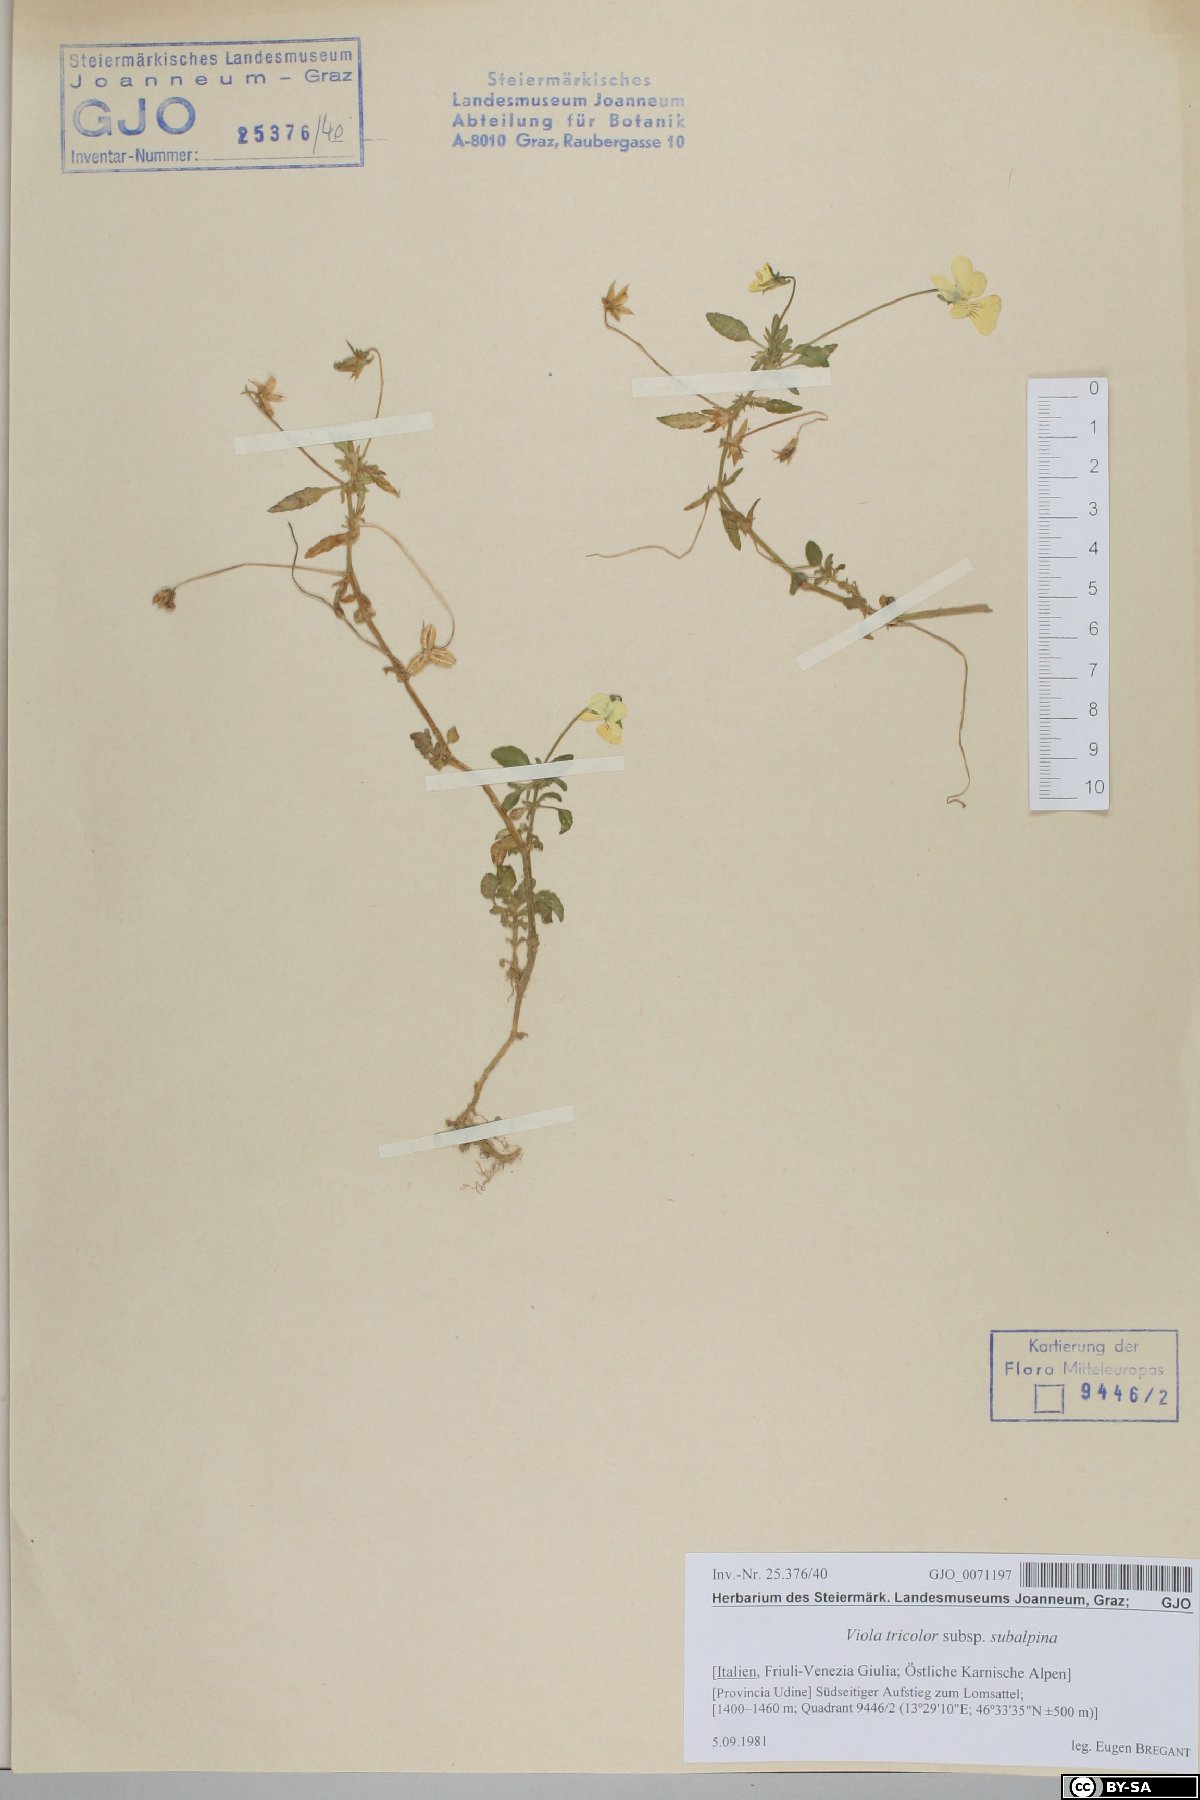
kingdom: Plantae
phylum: Tracheophyta
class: Magnoliopsida
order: Malpighiales
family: Violaceae
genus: Viola
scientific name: Viola tricolor
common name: Pansy
